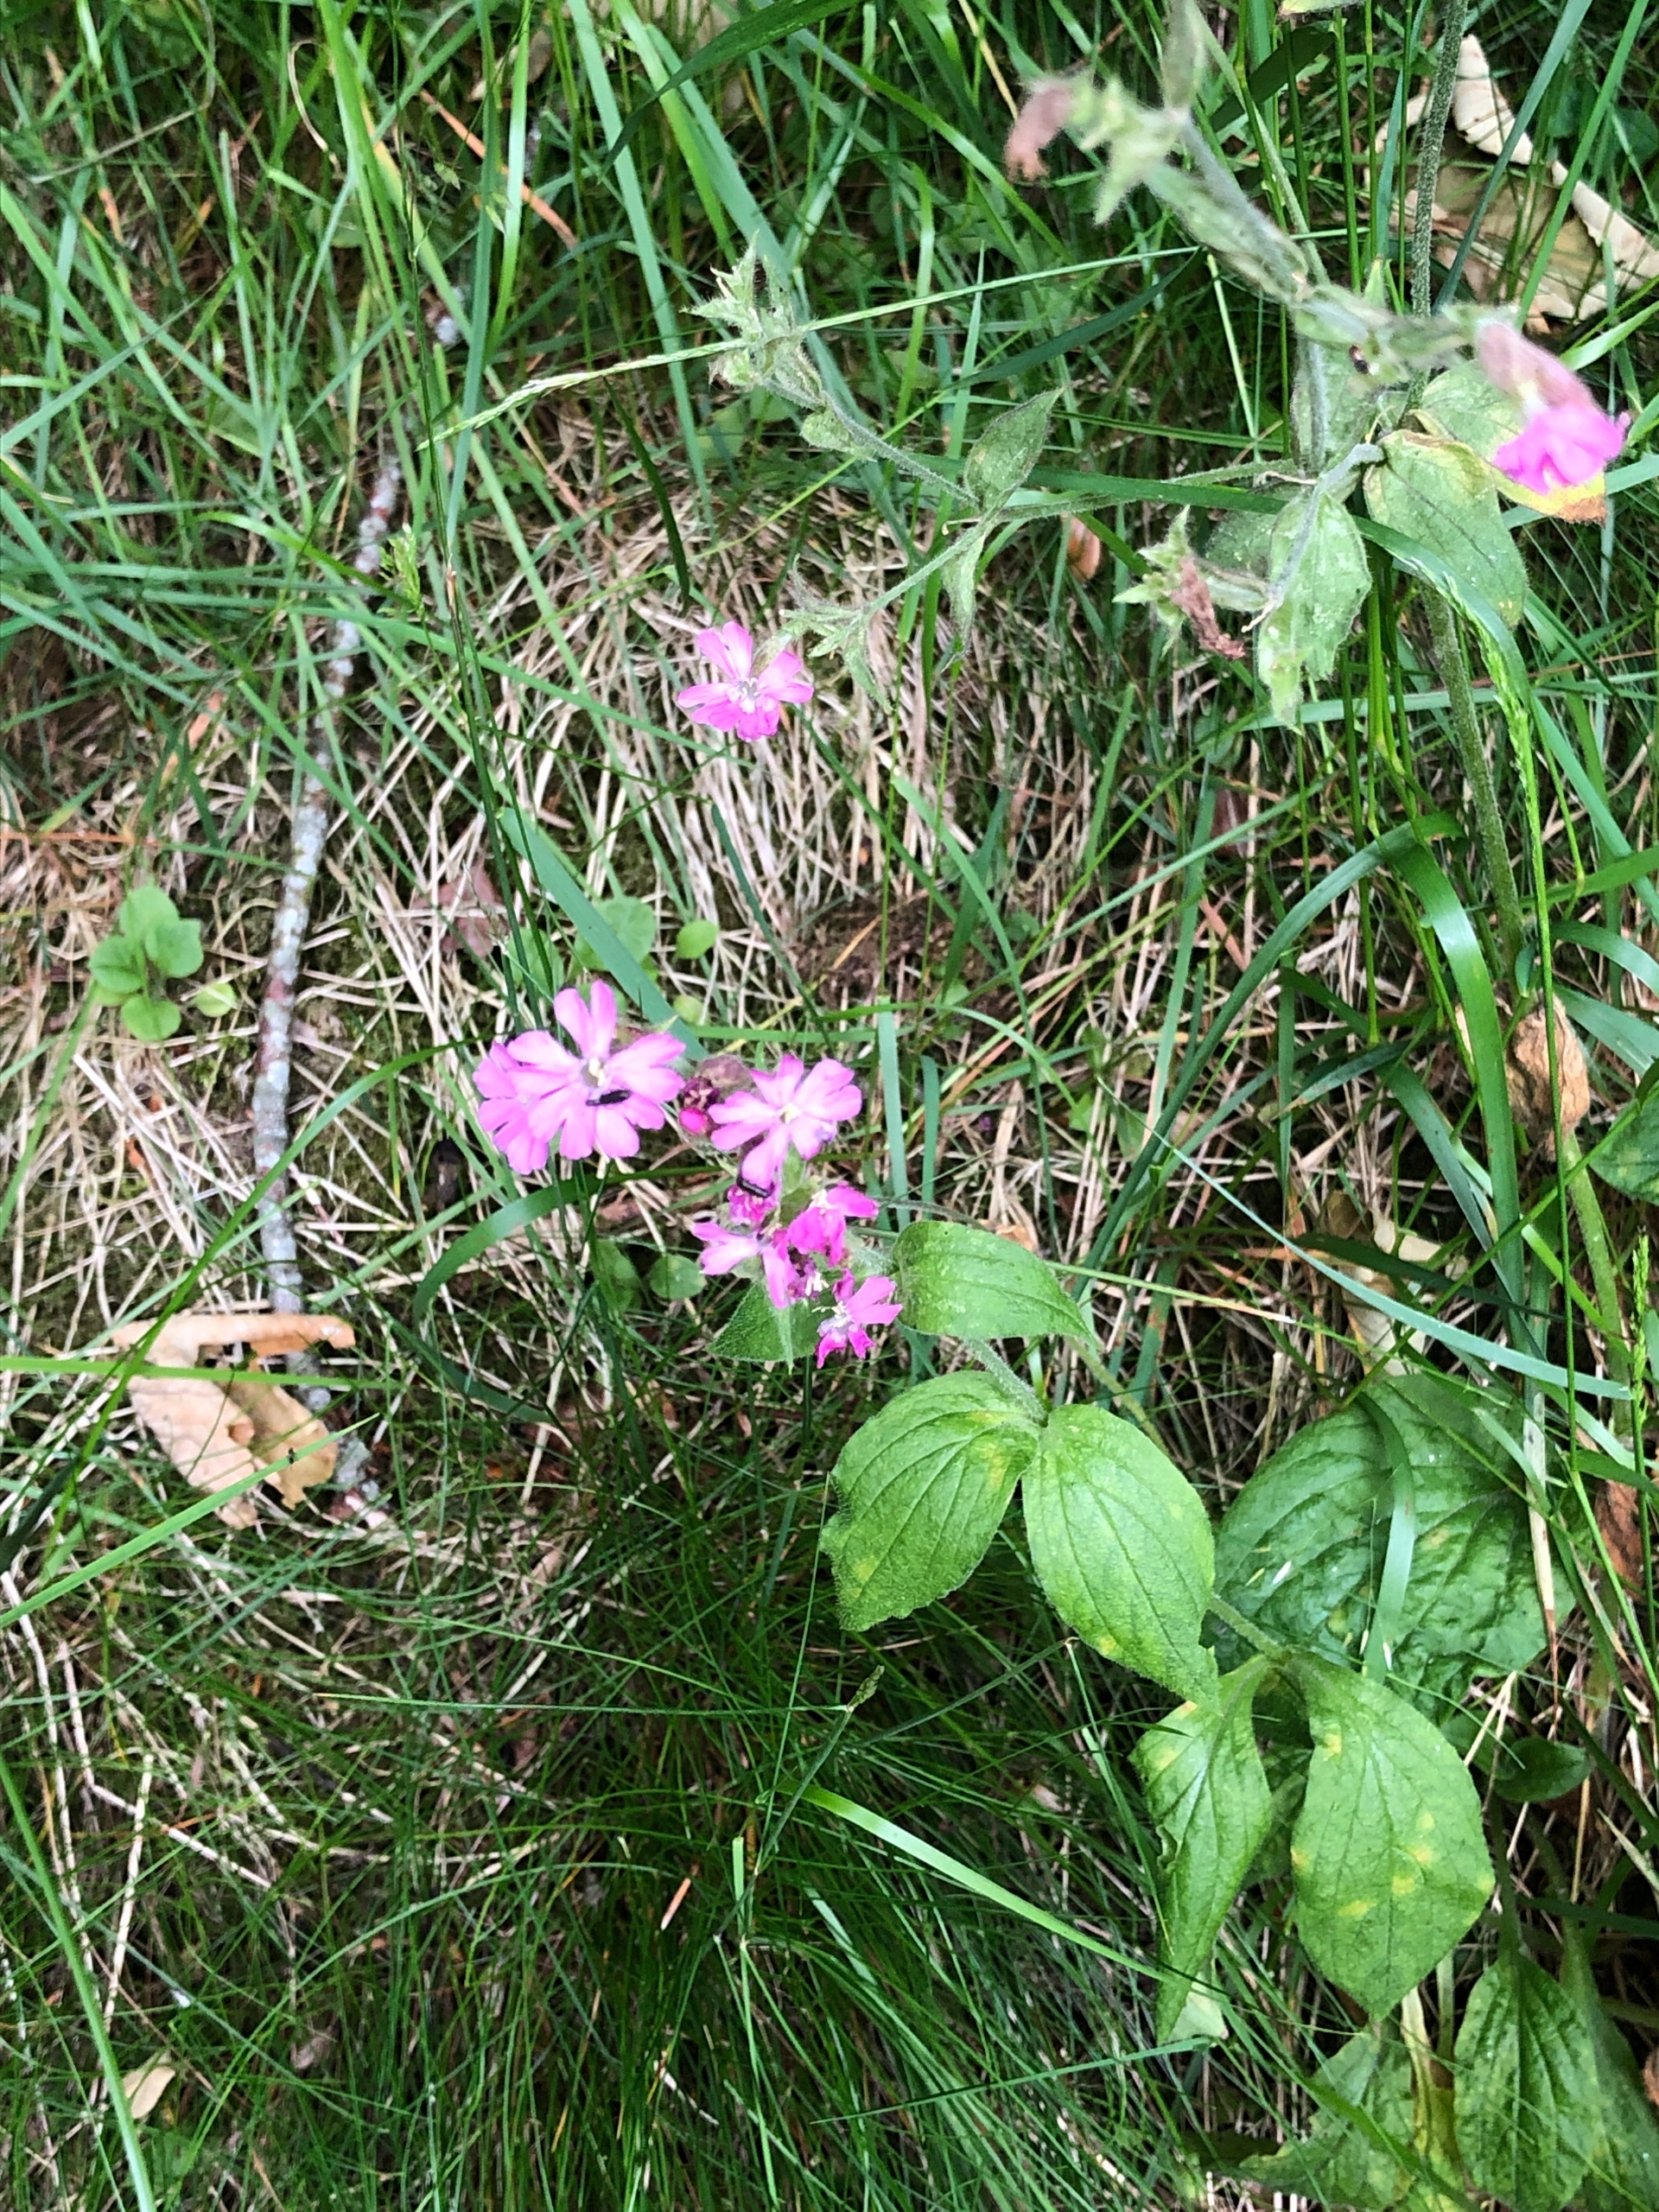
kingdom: Plantae
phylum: Tracheophyta
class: Magnoliopsida
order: Caryophyllales
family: Caryophyllaceae
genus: Silene
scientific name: Silene dioica
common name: Dagpragtstjerne
